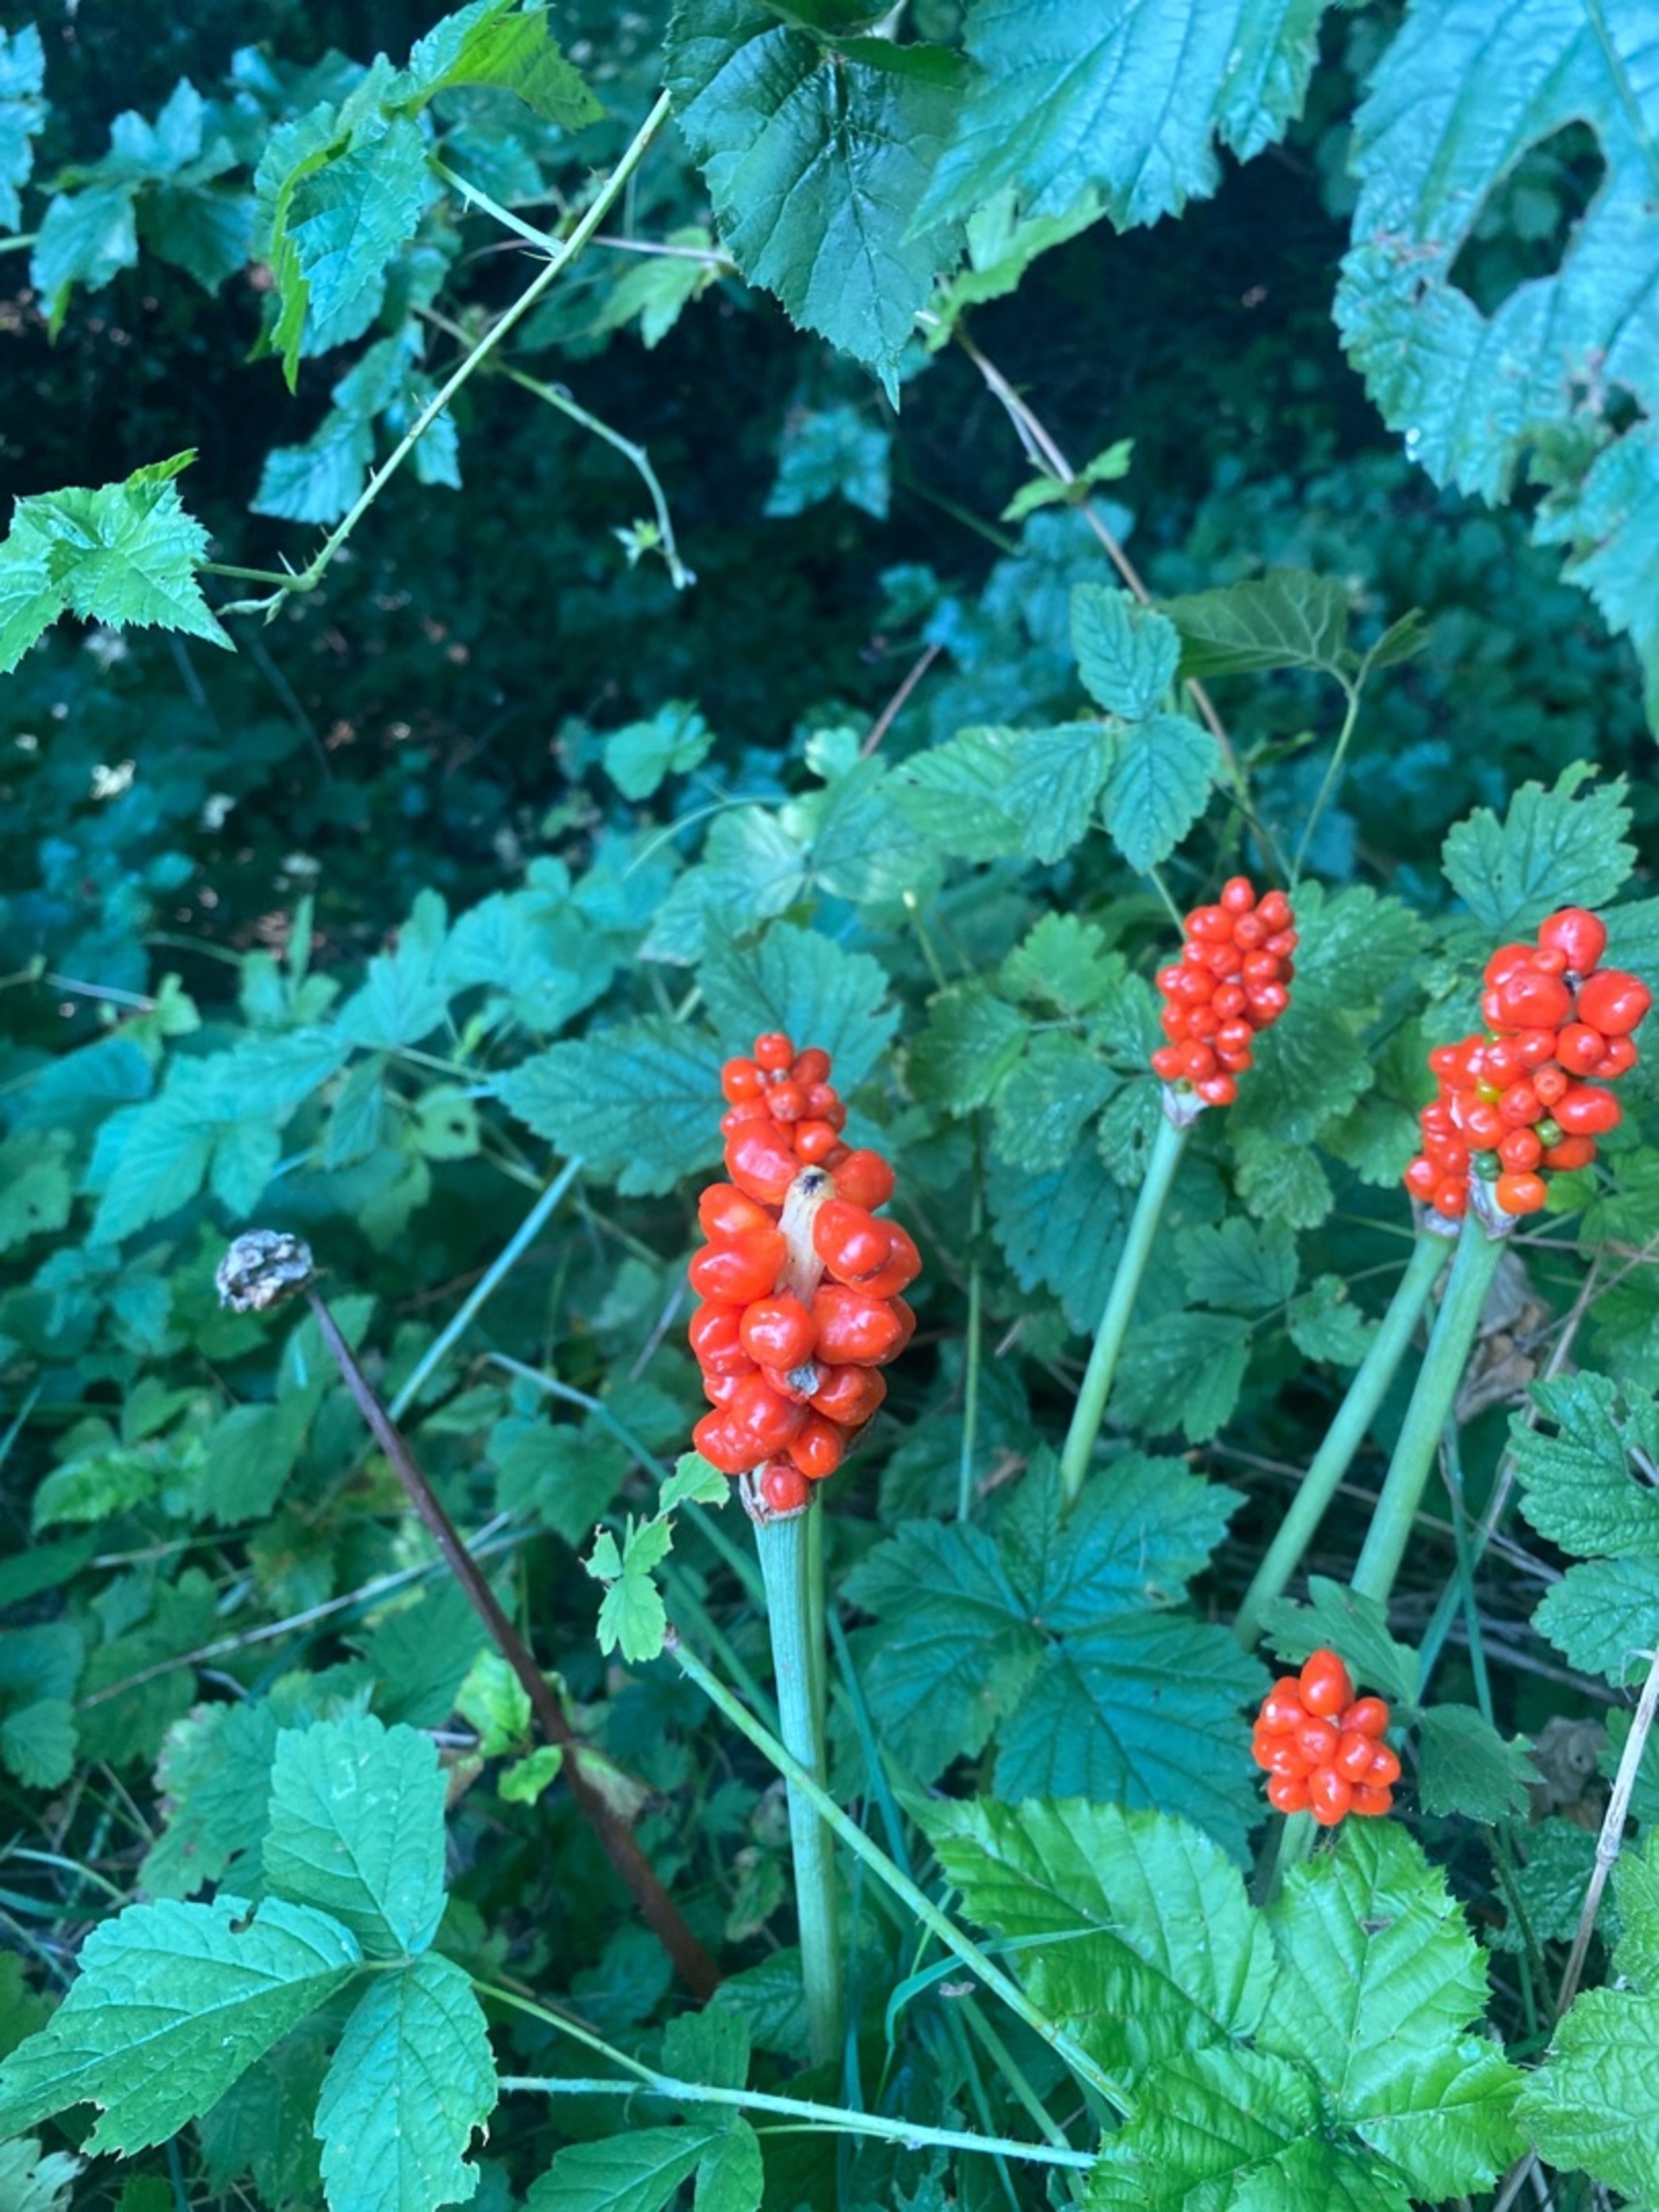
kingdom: Plantae
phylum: Tracheophyta
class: Liliopsida
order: Alismatales
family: Araceae
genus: Arum
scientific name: Arum
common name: Arumslægten
